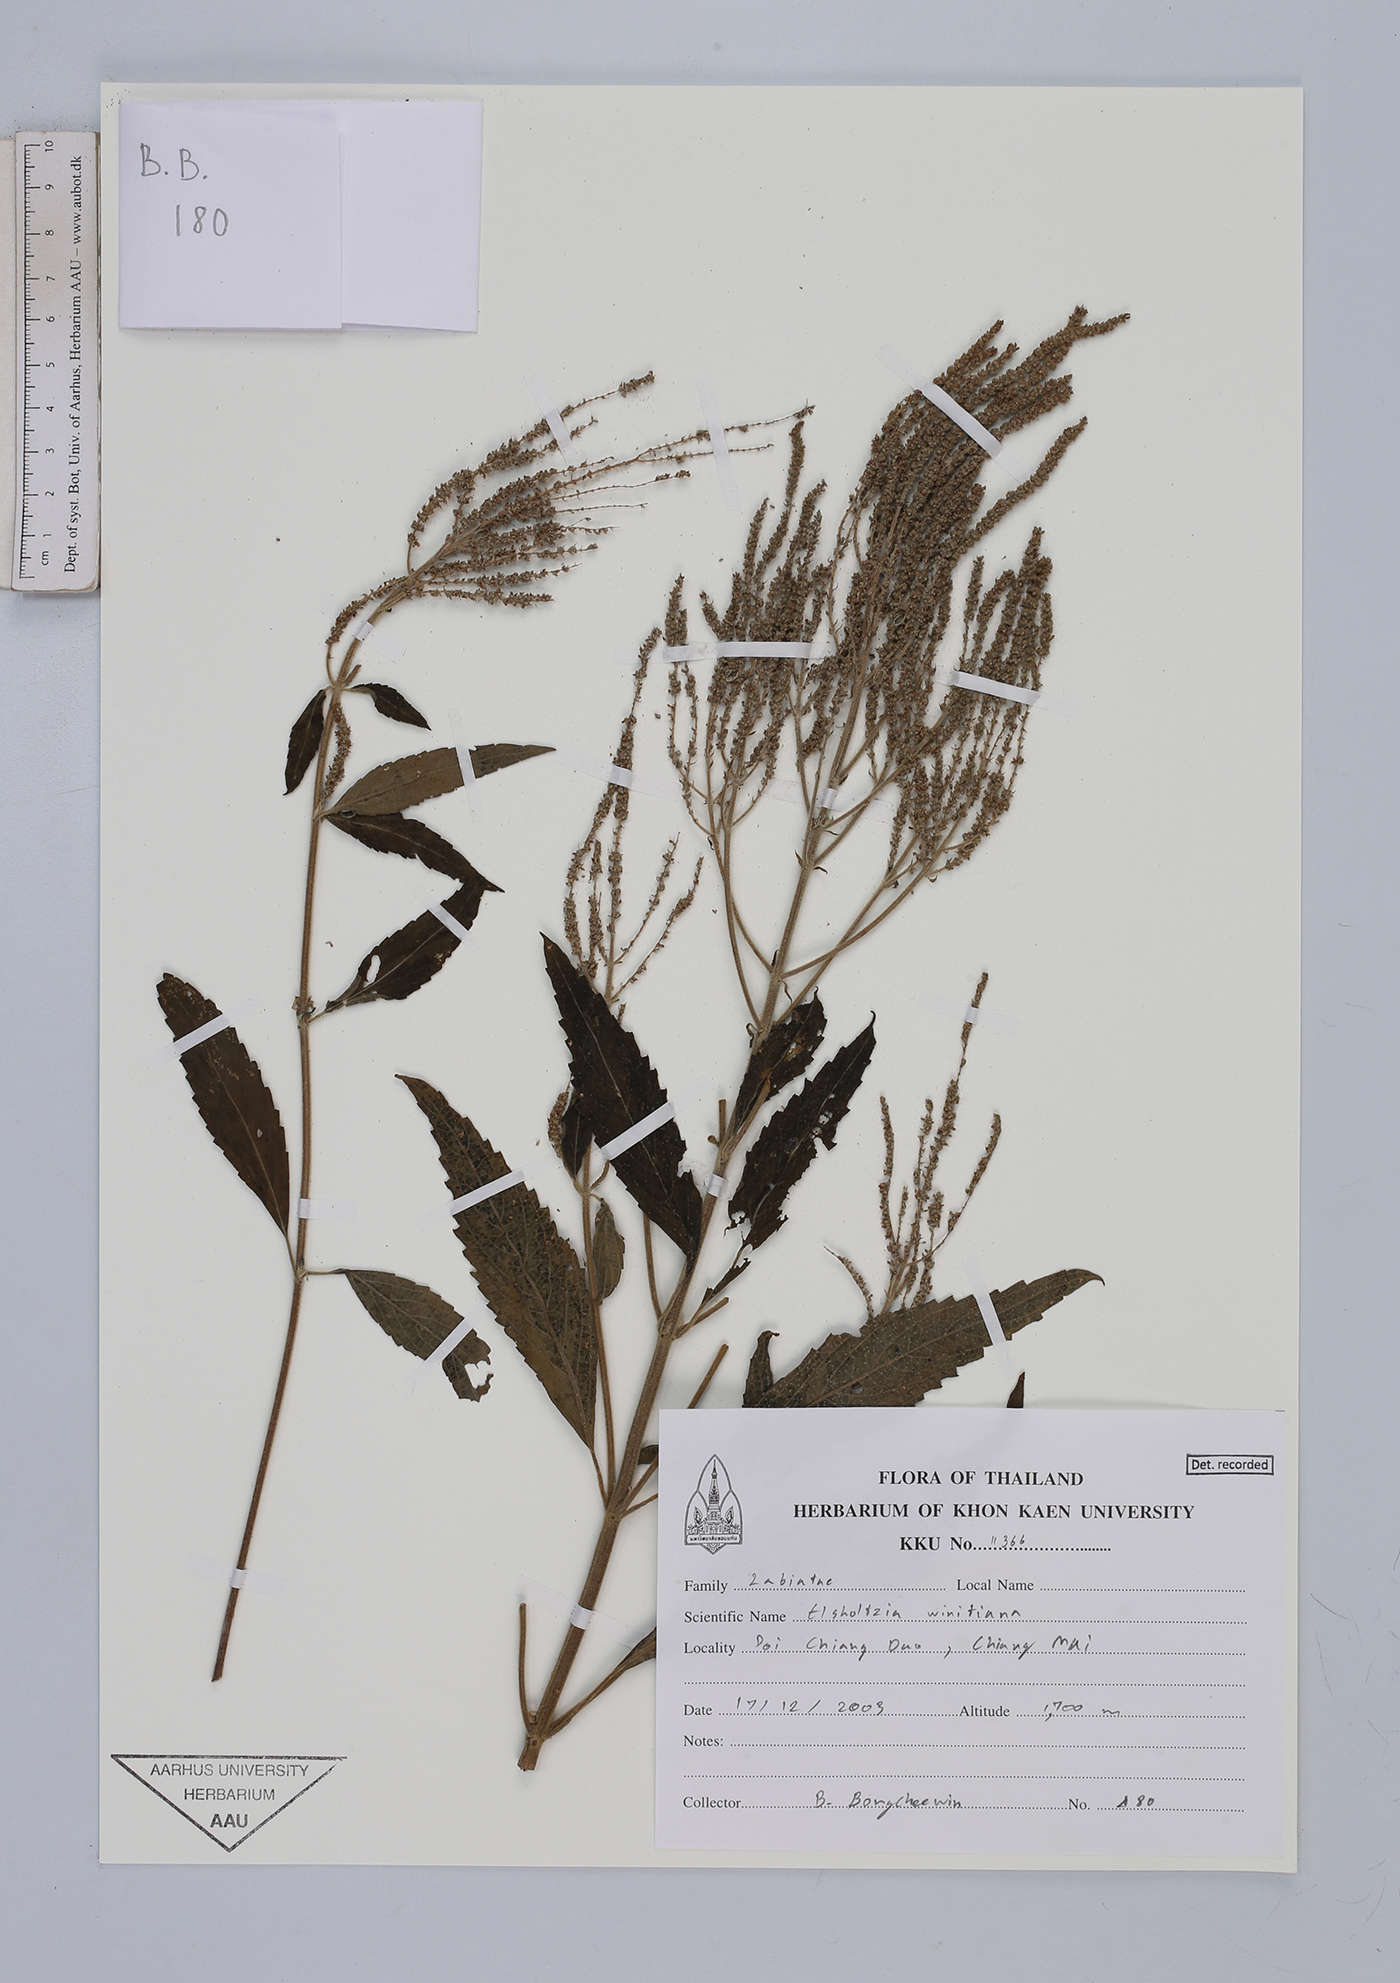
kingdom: Plantae
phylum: Tracheophyta
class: Magnoliopsida
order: Lamiales
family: Lamiaceae
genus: Elsholtzia
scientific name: Elsholtzia winitiana
